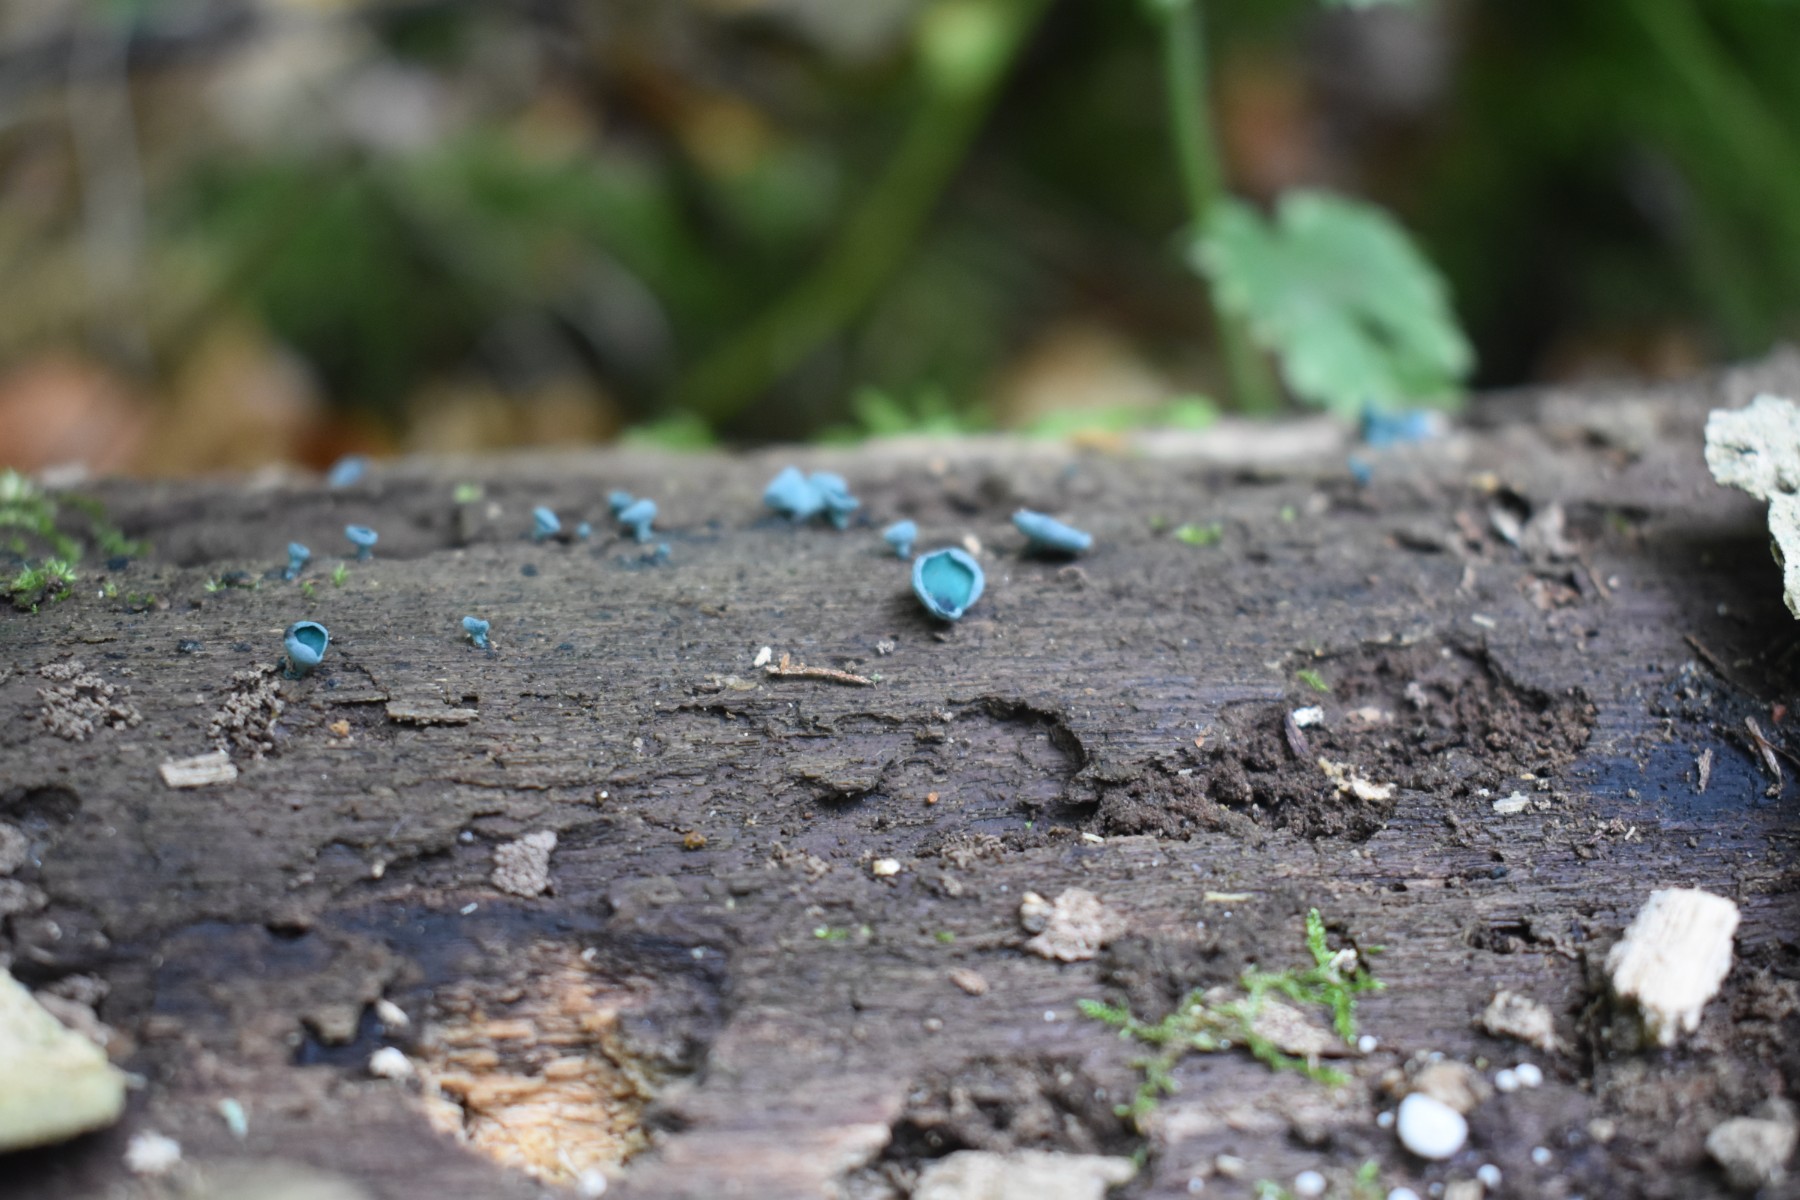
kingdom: Fungi
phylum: Ascomycota
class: Leotiomycetes
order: Helotiales
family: Chlorociboriaceae
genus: Chlorociboria
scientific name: Chlorociboria aeruginascens
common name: almindelig grønskive
